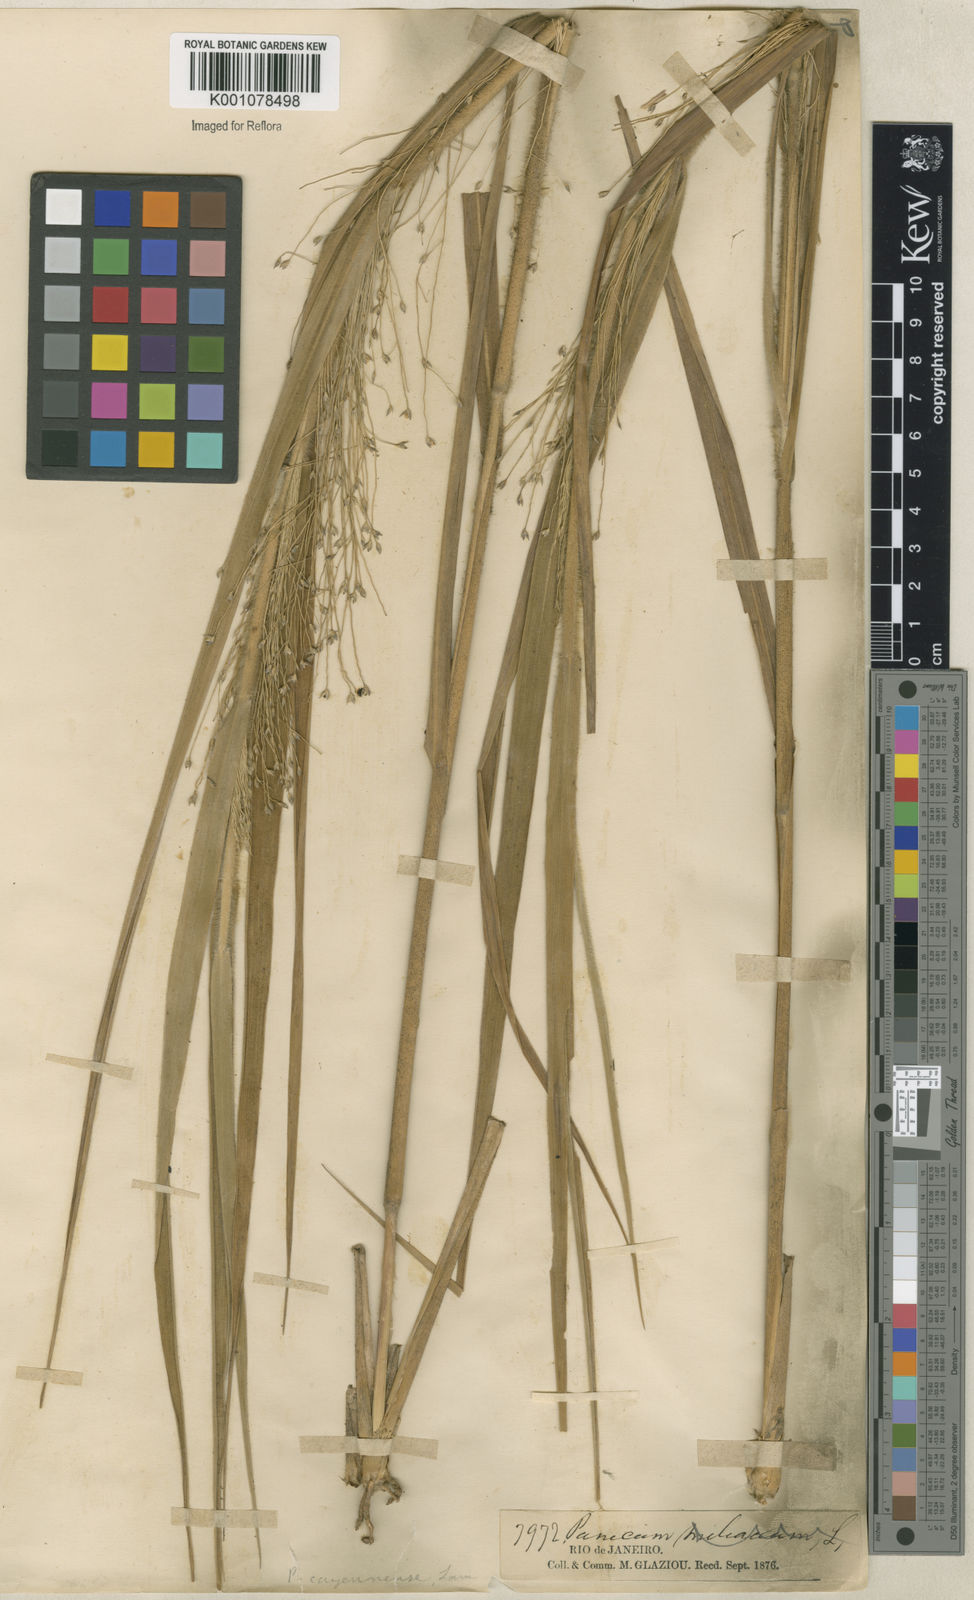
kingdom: Plantae
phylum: Tracheophyta
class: Liliopsida
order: Poales
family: Poaceae
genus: Panicum
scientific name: Panicum rudgei
